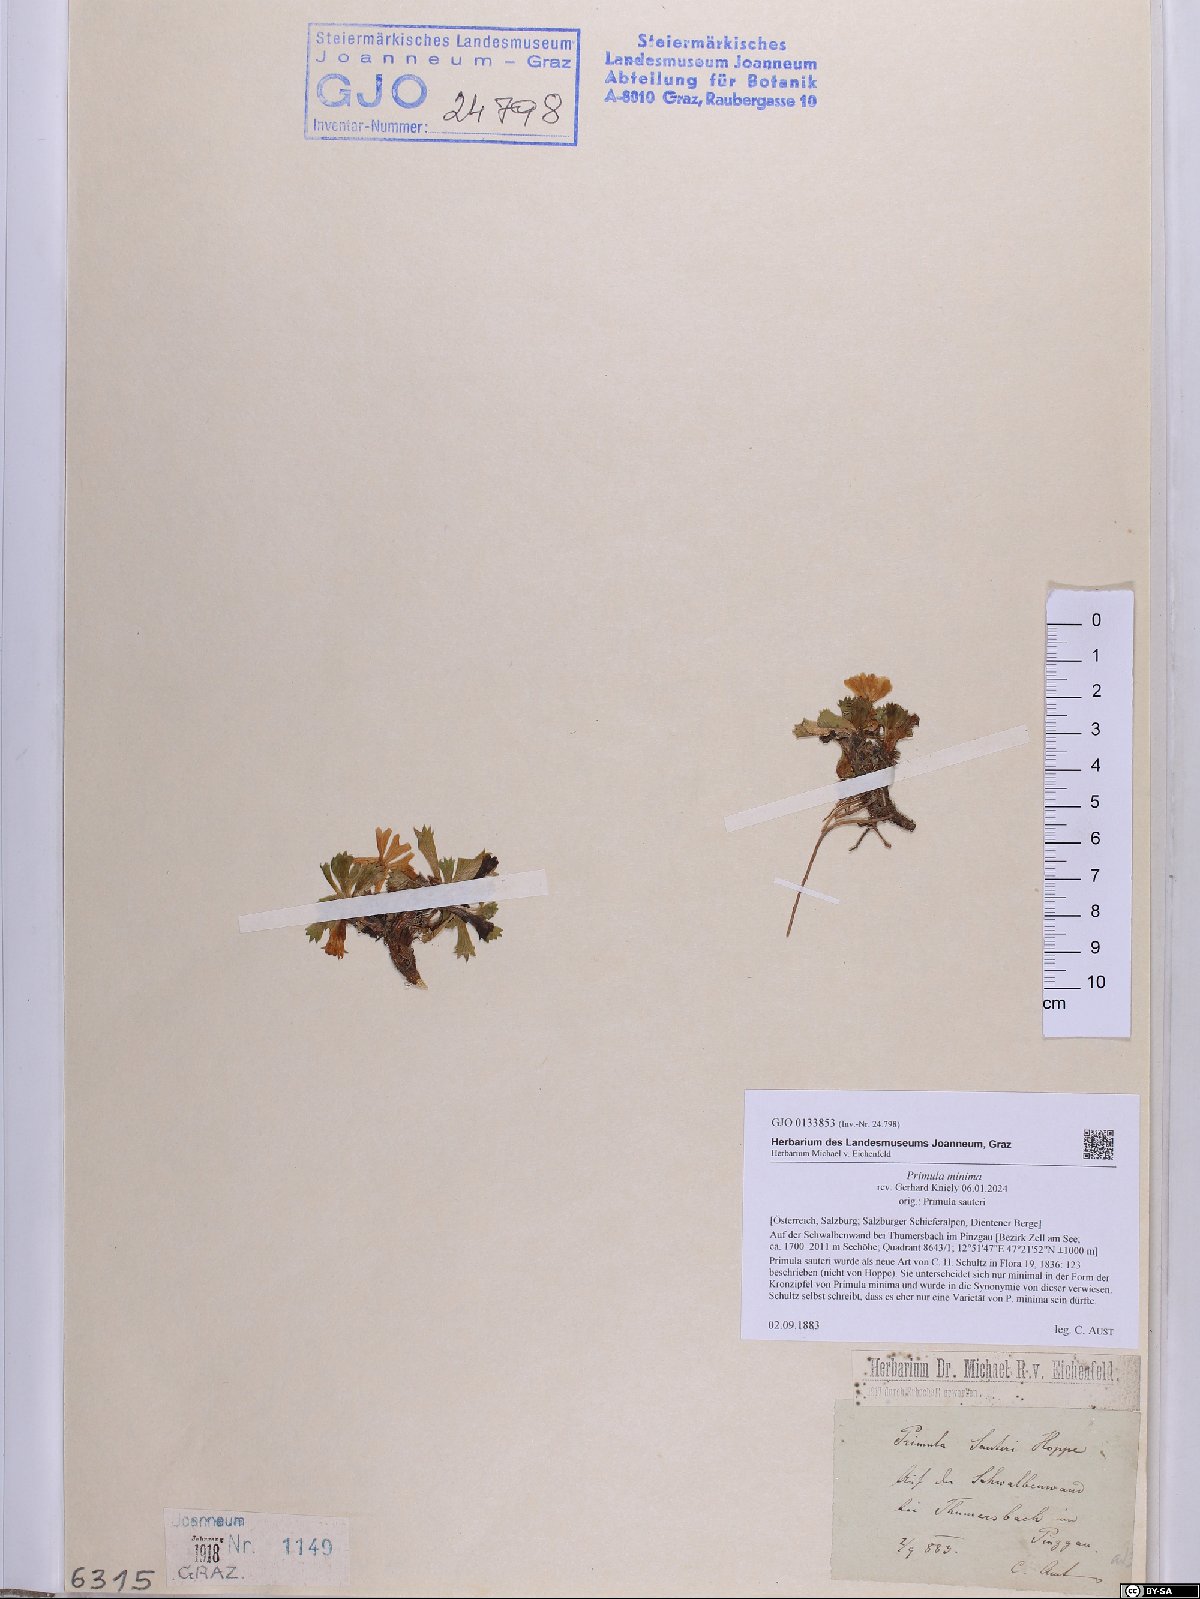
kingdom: Plantae
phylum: Tracheophyta
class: Magnoliopsida
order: Ericales
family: Primulaceae
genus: Primula
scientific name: Primula minima
